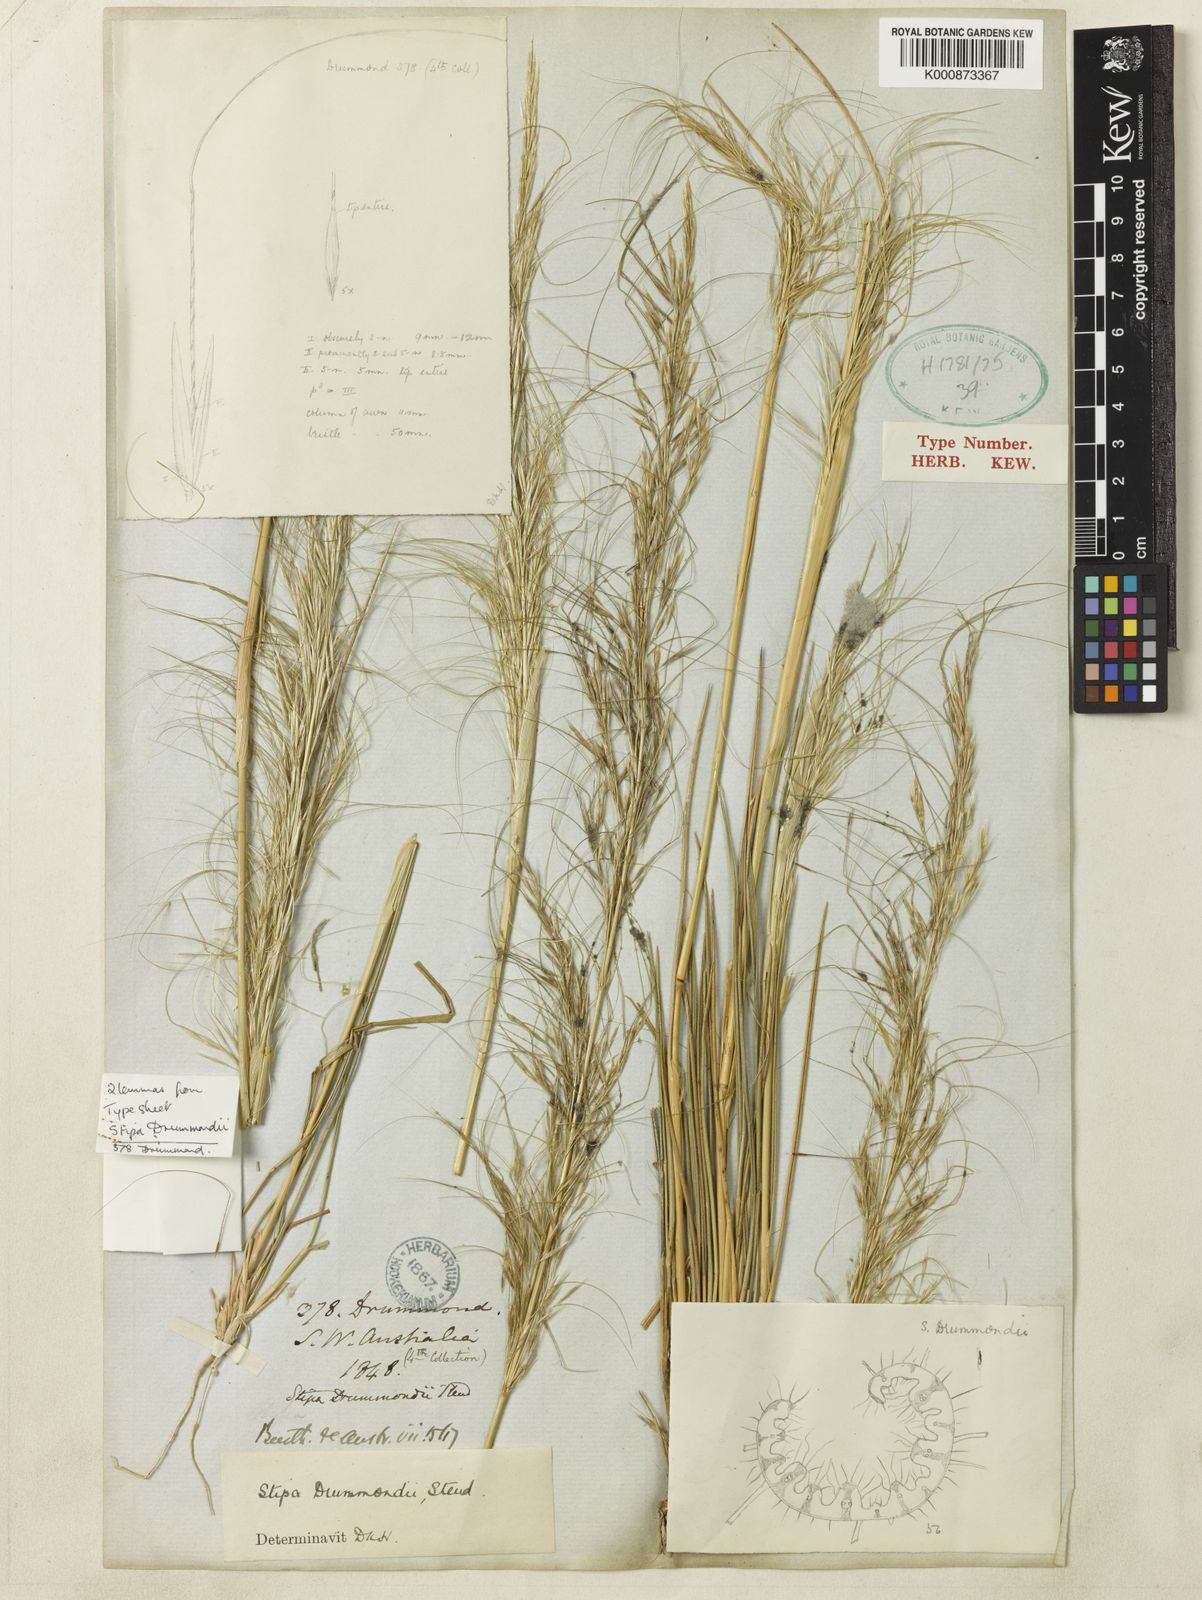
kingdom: Plantae
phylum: Tracheophyta
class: Liliopsida
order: Poales
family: Poaceae
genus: Austrostipa
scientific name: Austrostipa drummondii
